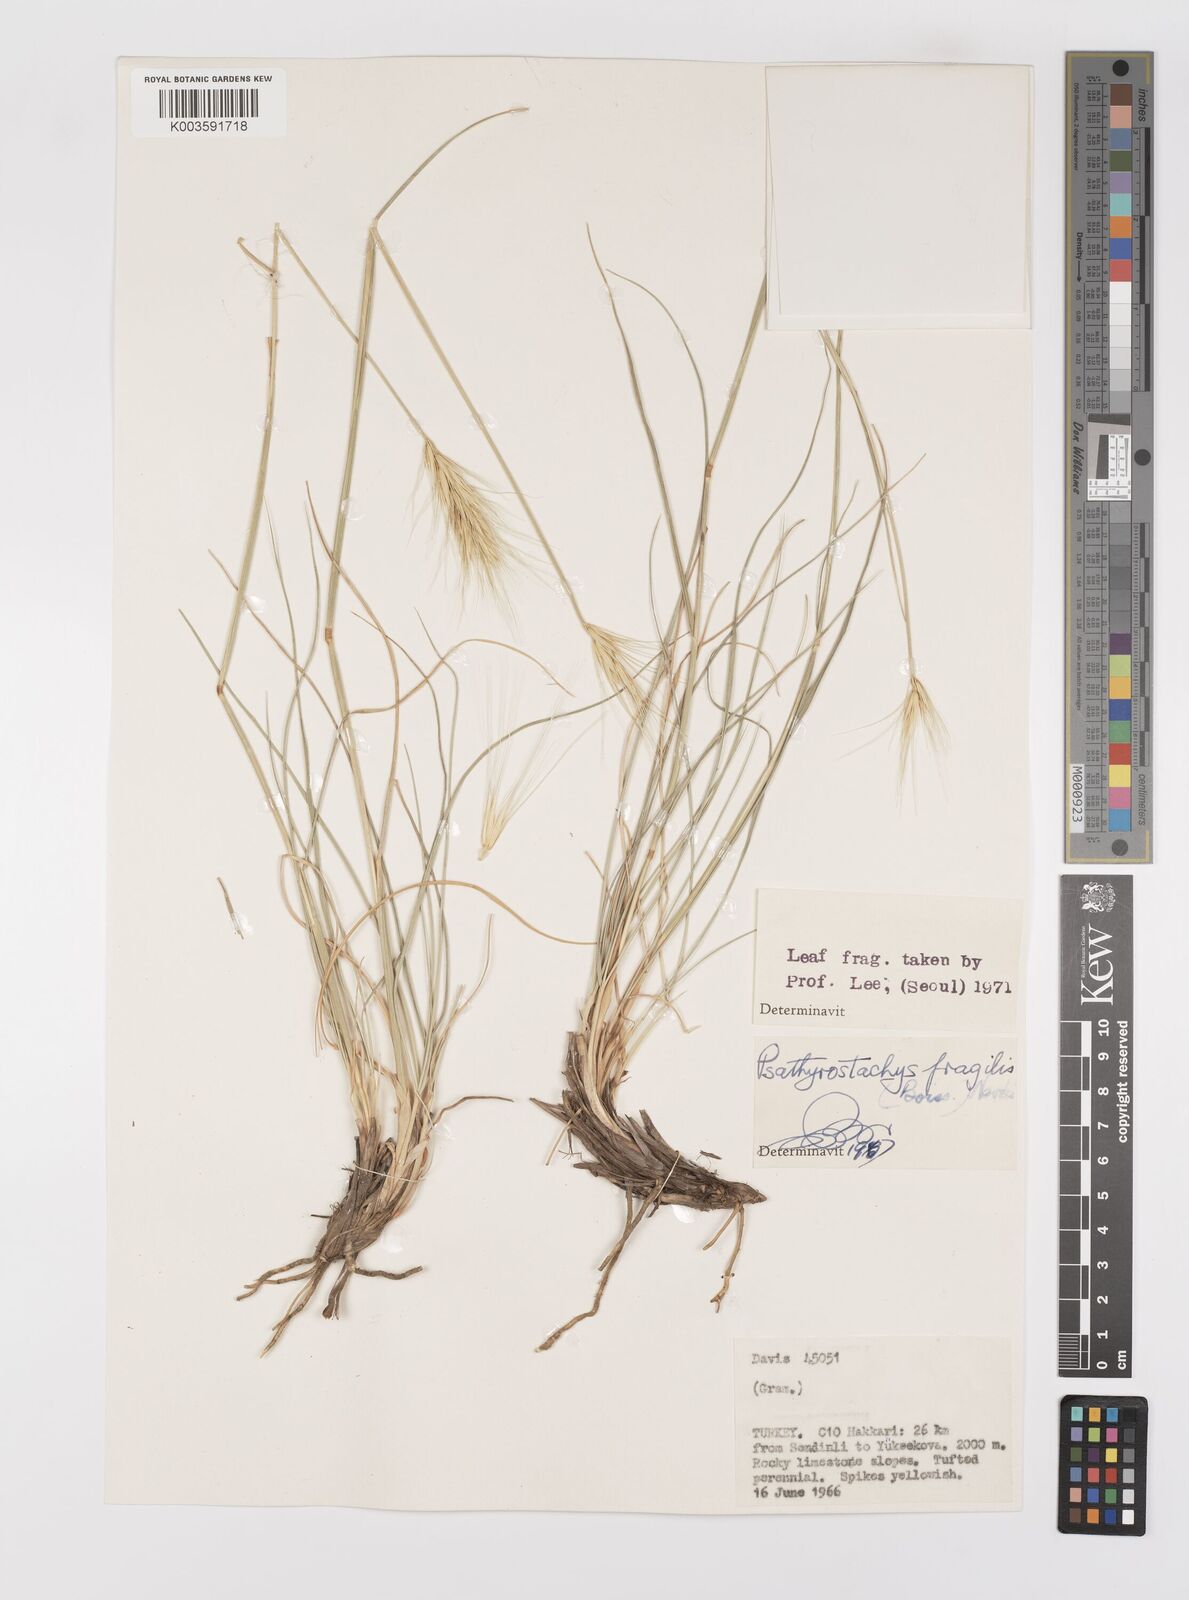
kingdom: Plantae
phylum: Tracheophyta
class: Liliopsida
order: Poales
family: Poaceae
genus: Psathyrostachys
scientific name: Psathyrostachys fragilis
